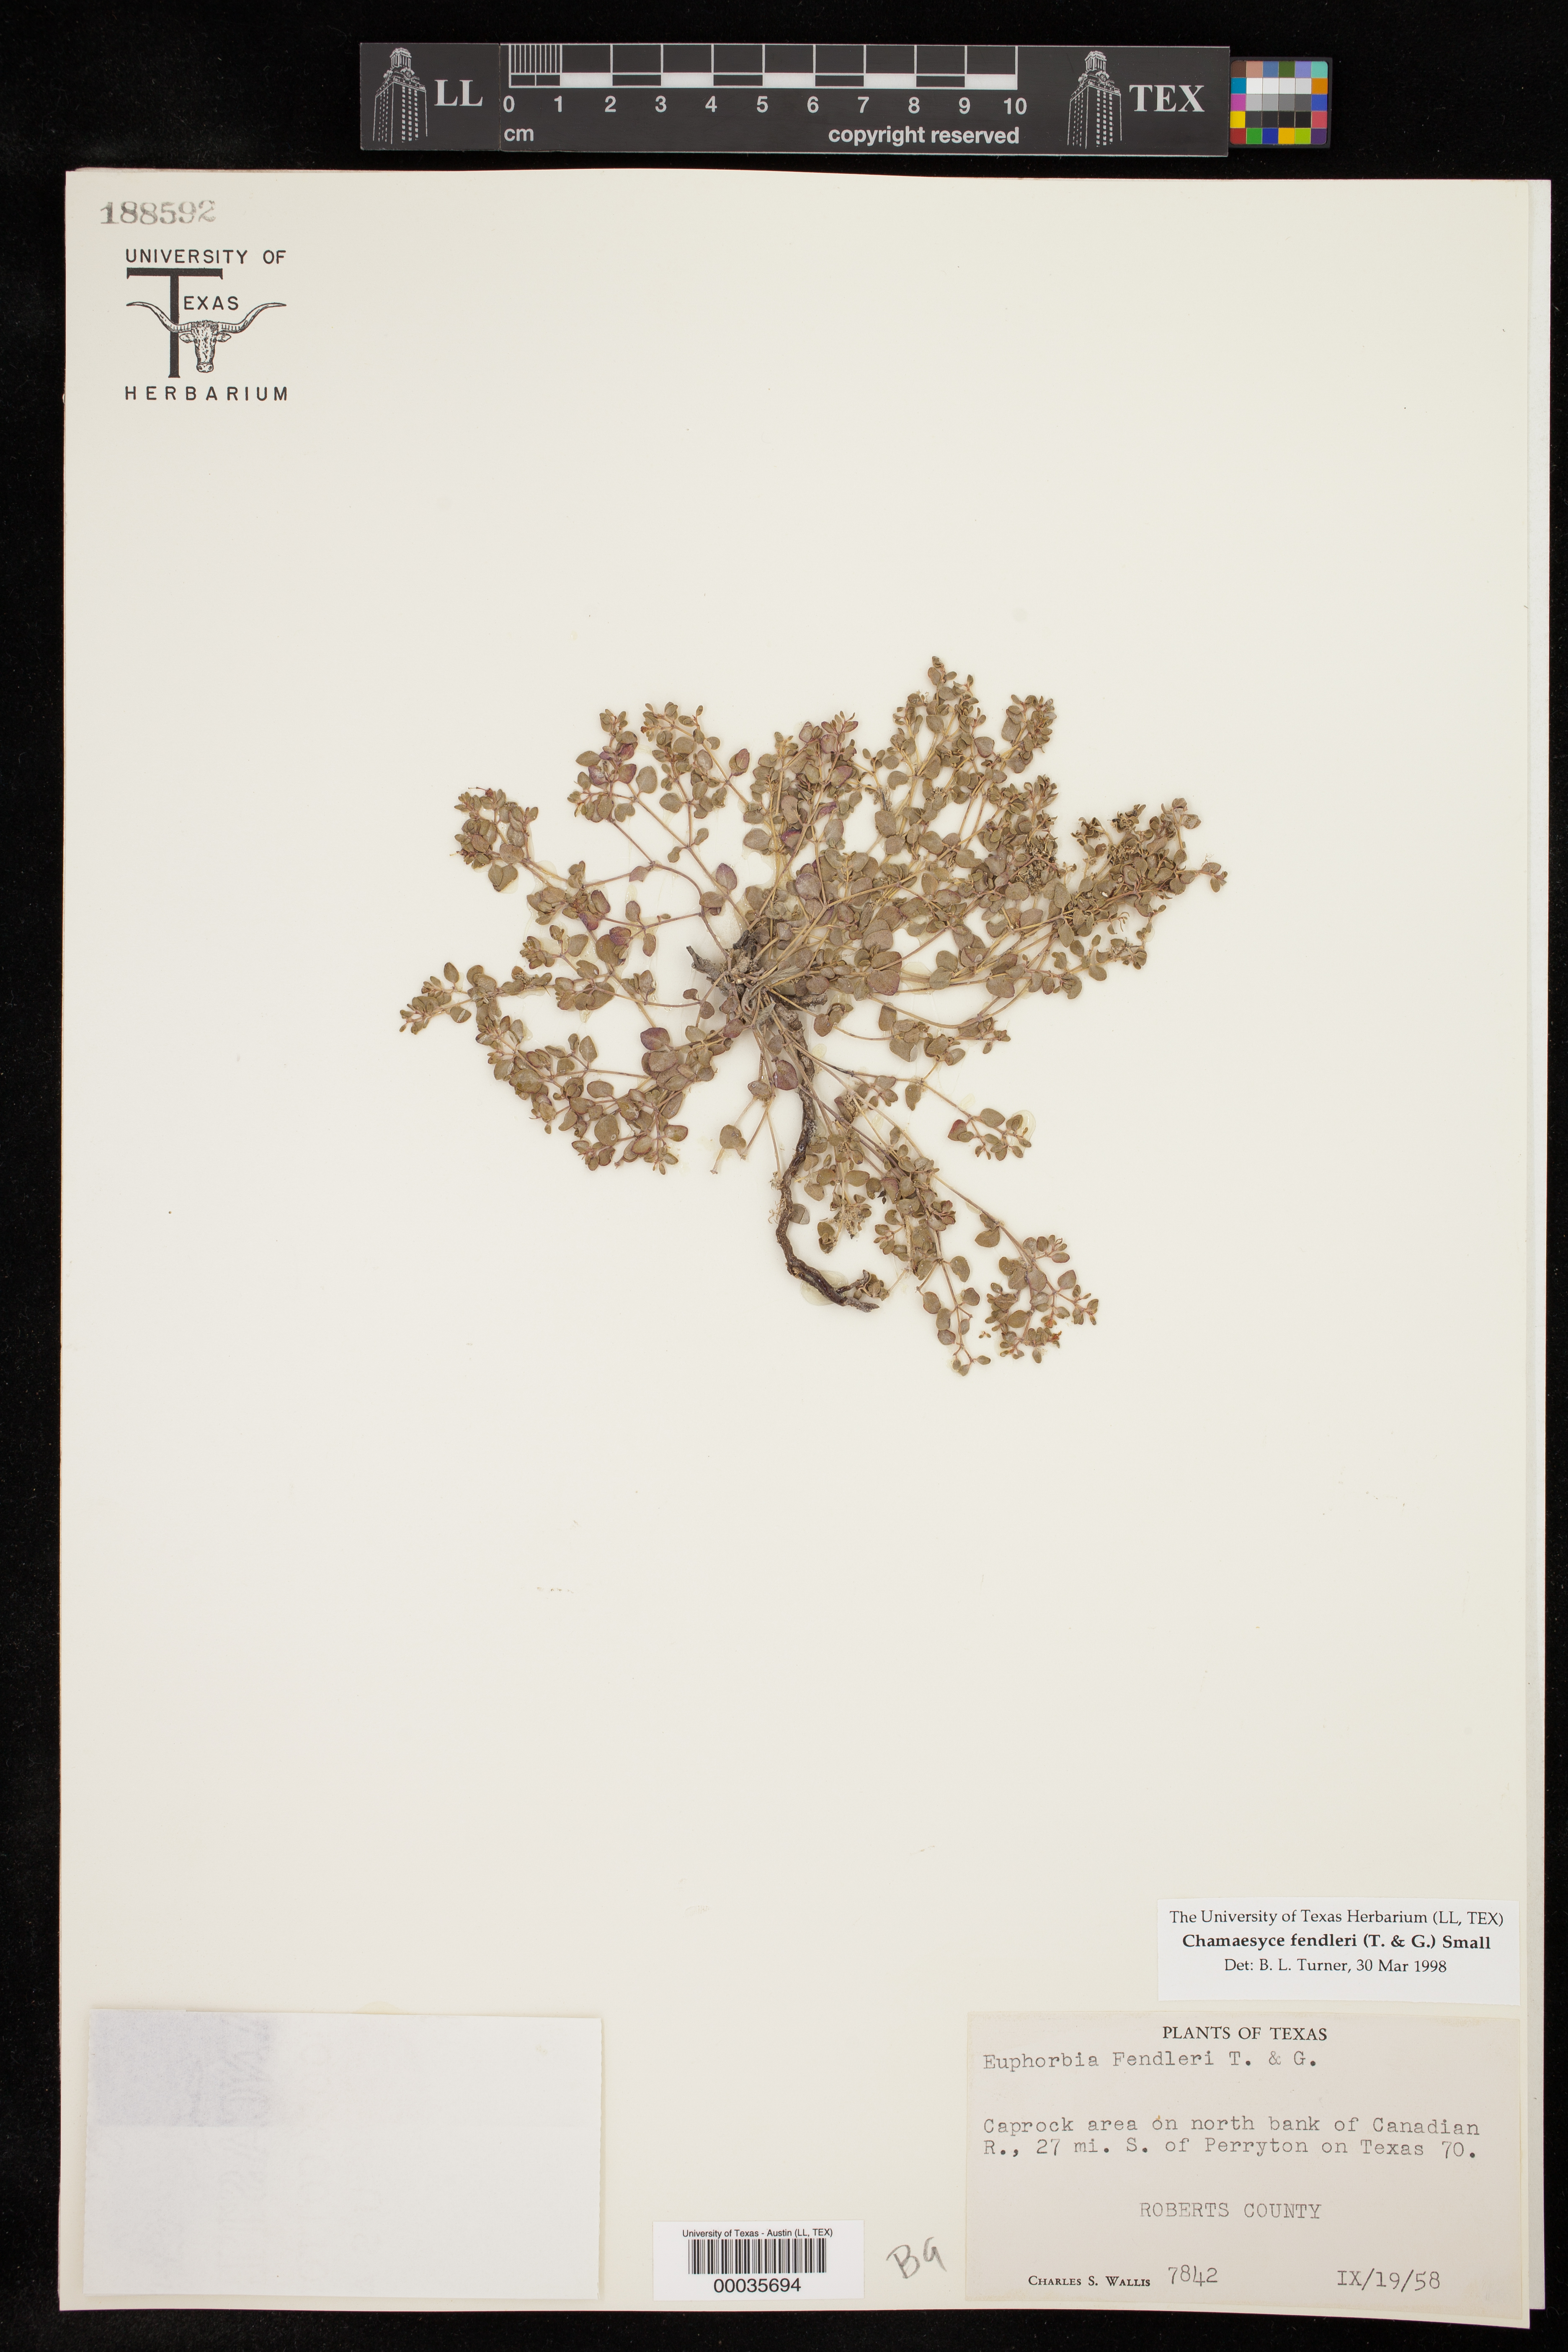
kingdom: Plantae
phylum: Tracheophyta
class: Magnoliopsida
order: Malpighiales
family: Euphorbiaceae
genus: Euphorbia
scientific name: Euphorbia fendleri
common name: Fendler's euphorbia
